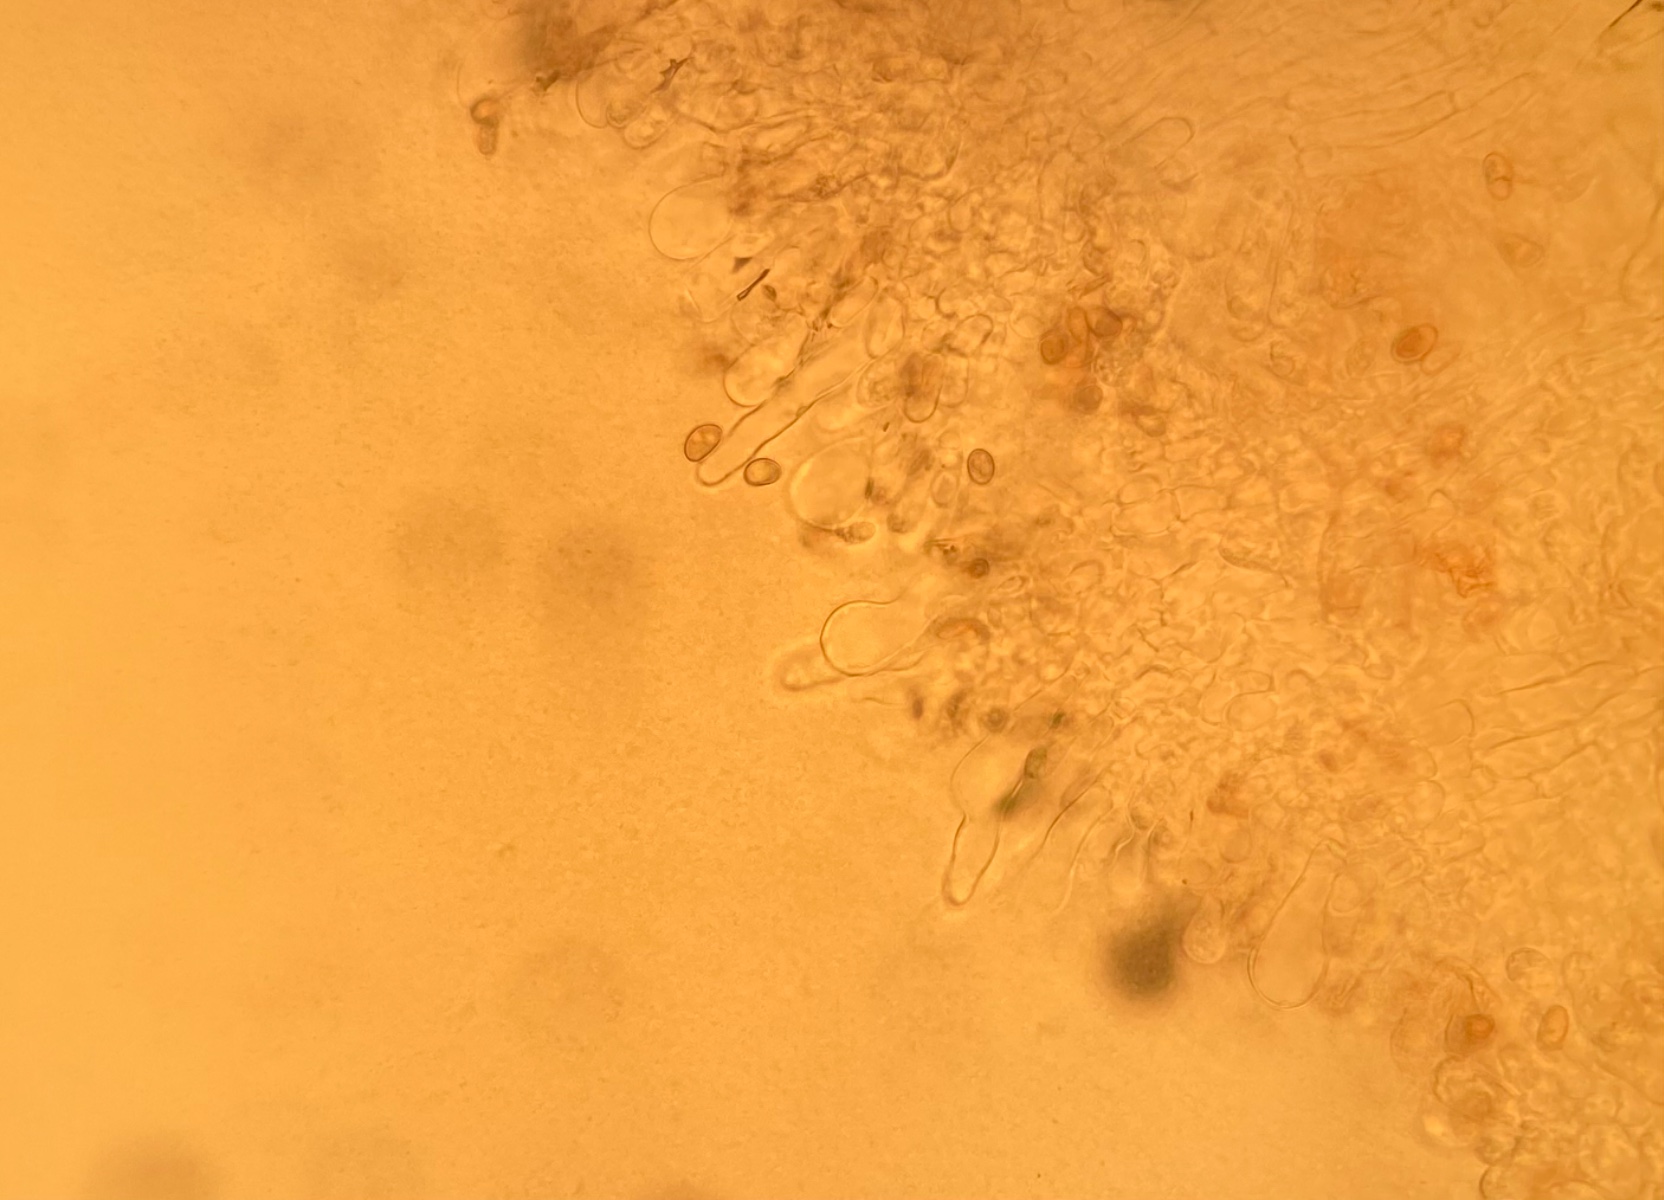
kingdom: Fungi
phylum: Basidiomycota
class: Agaricomycetes
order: Agaricales
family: Inocybaceae
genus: Inosperma
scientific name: Inosperma adaequatum
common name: vinrød trævlhat
